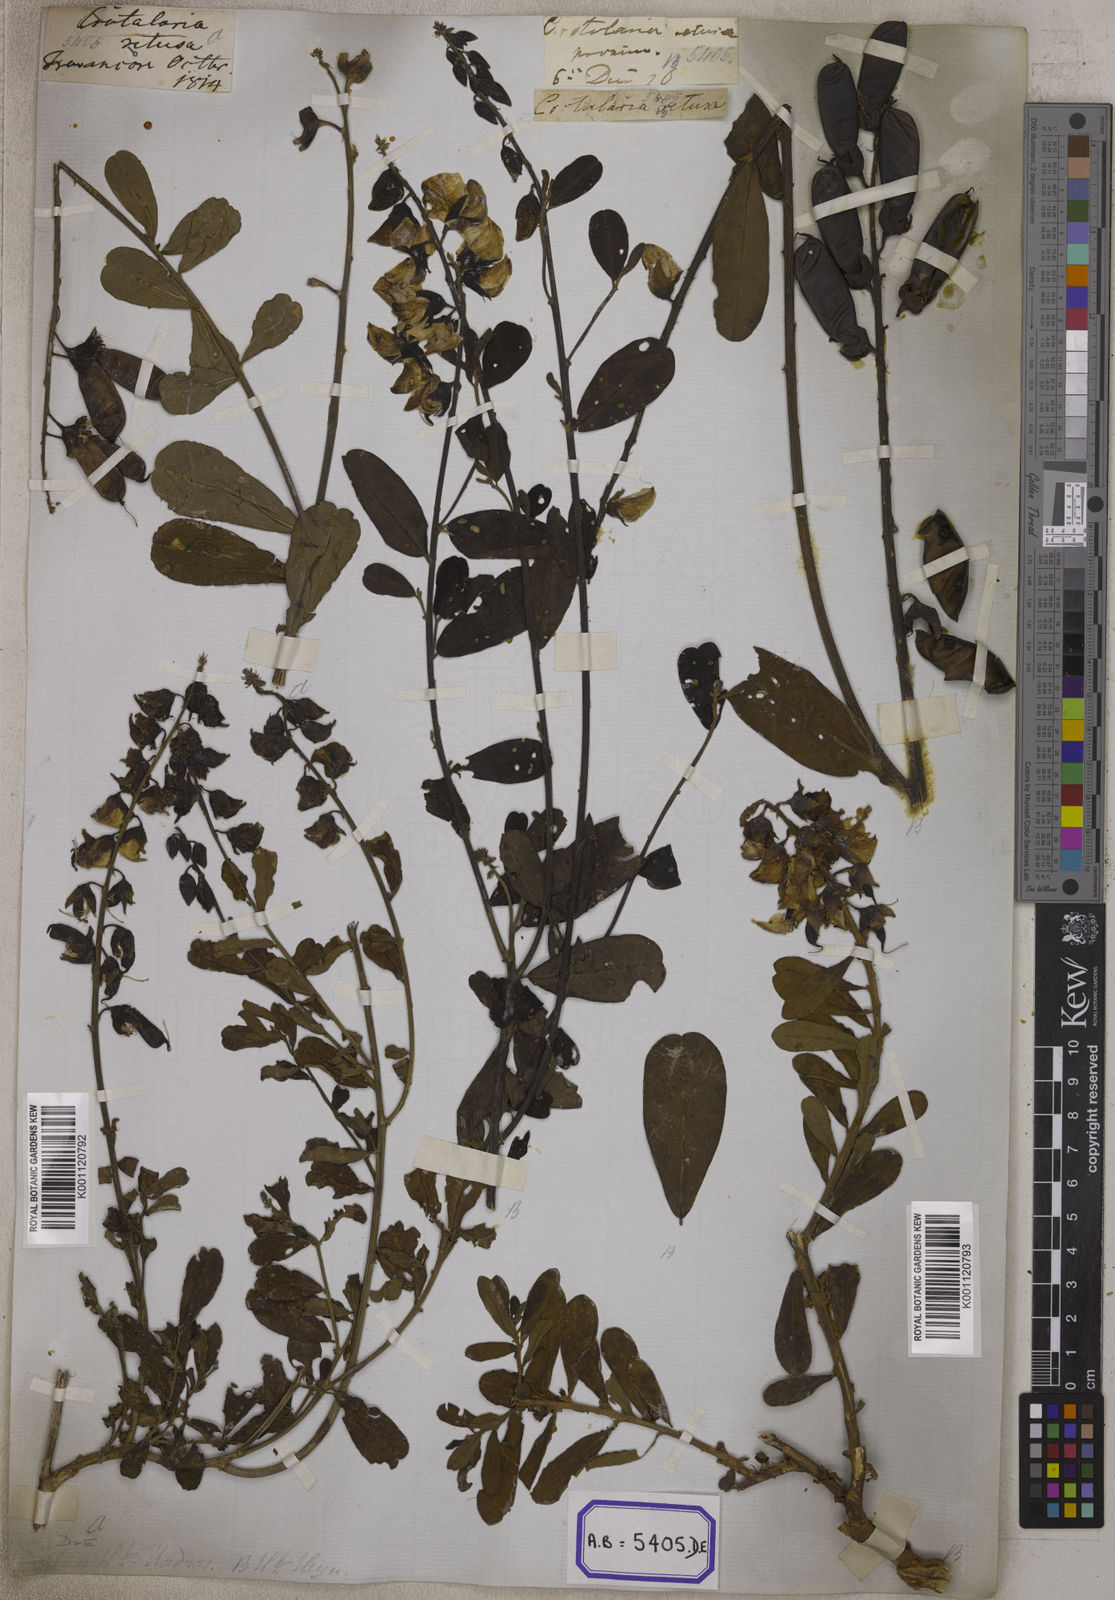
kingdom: Plantae
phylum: Tracheophyta
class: Magnoliopsida
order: Fabales
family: Fabaceae
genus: Crotalaria
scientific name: Crotalaria retusa
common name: Rattleweed
